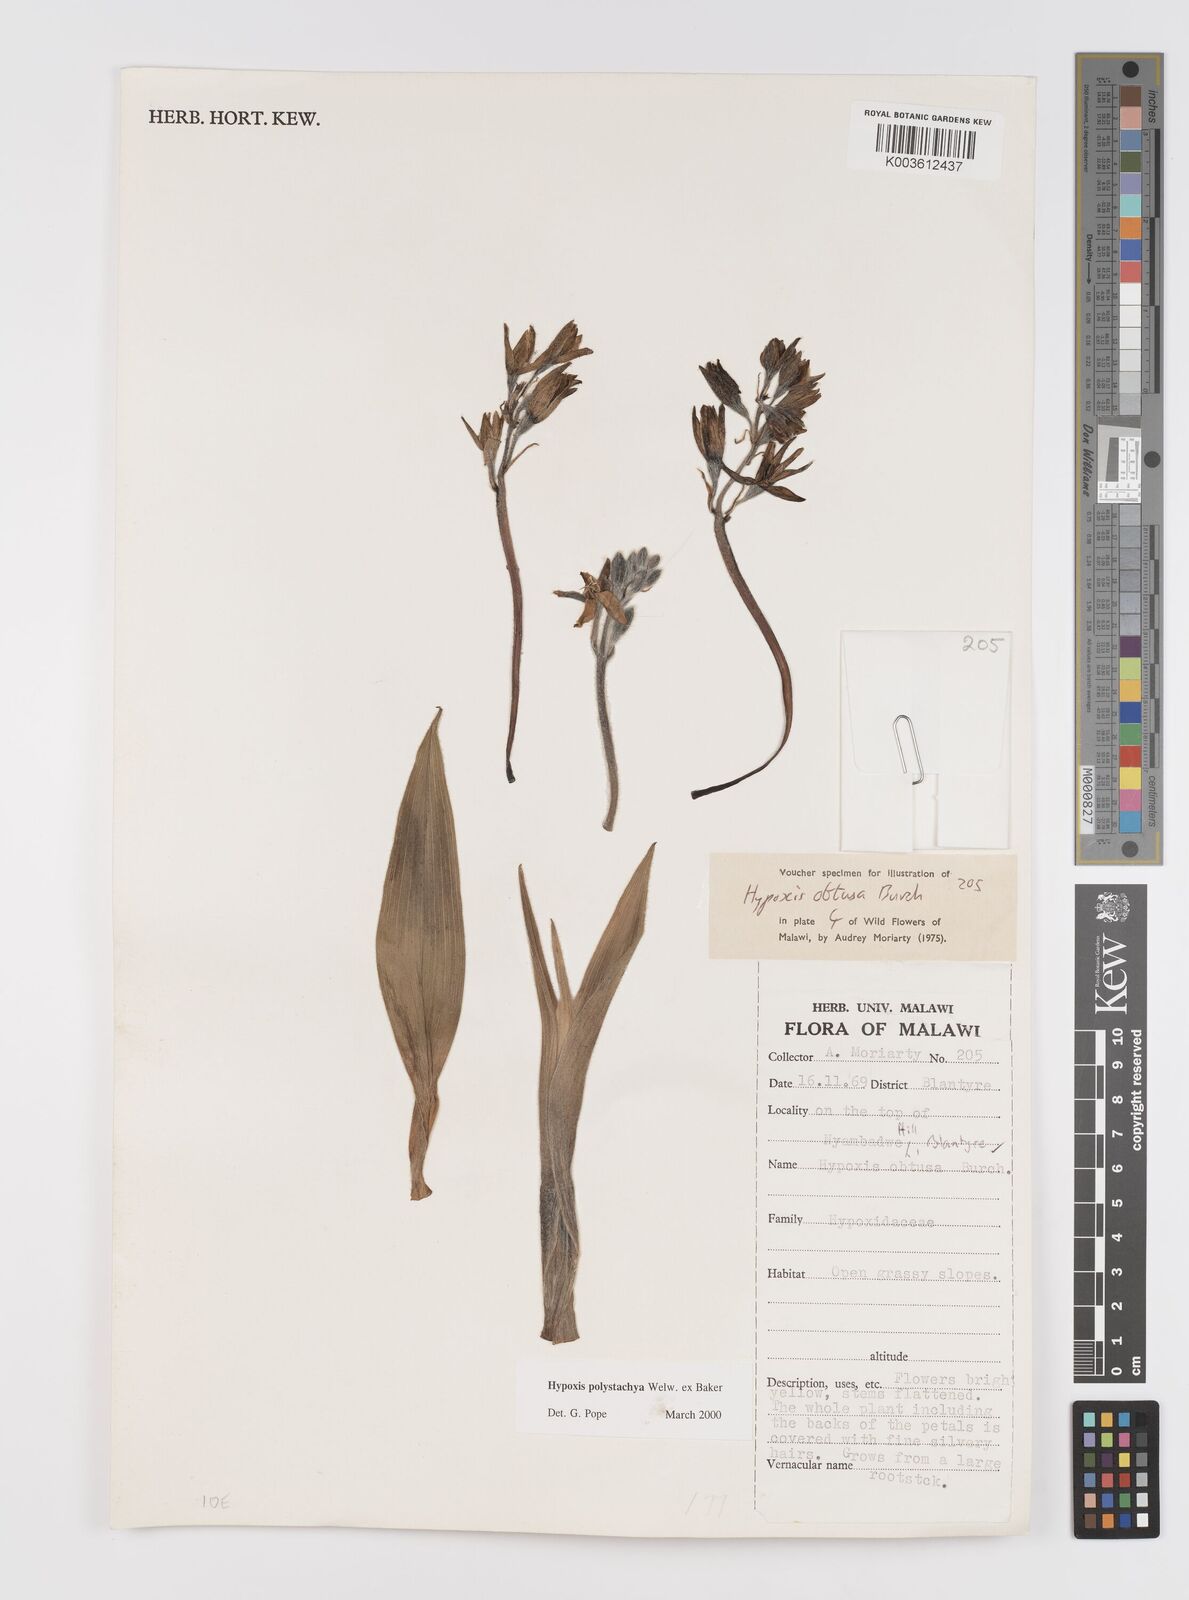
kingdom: Plantae
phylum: Tracheophyta
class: Liliopsida
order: Asparagales
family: Hypoxidaceae
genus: Hypoxis
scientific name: Hypoxis polystachya
